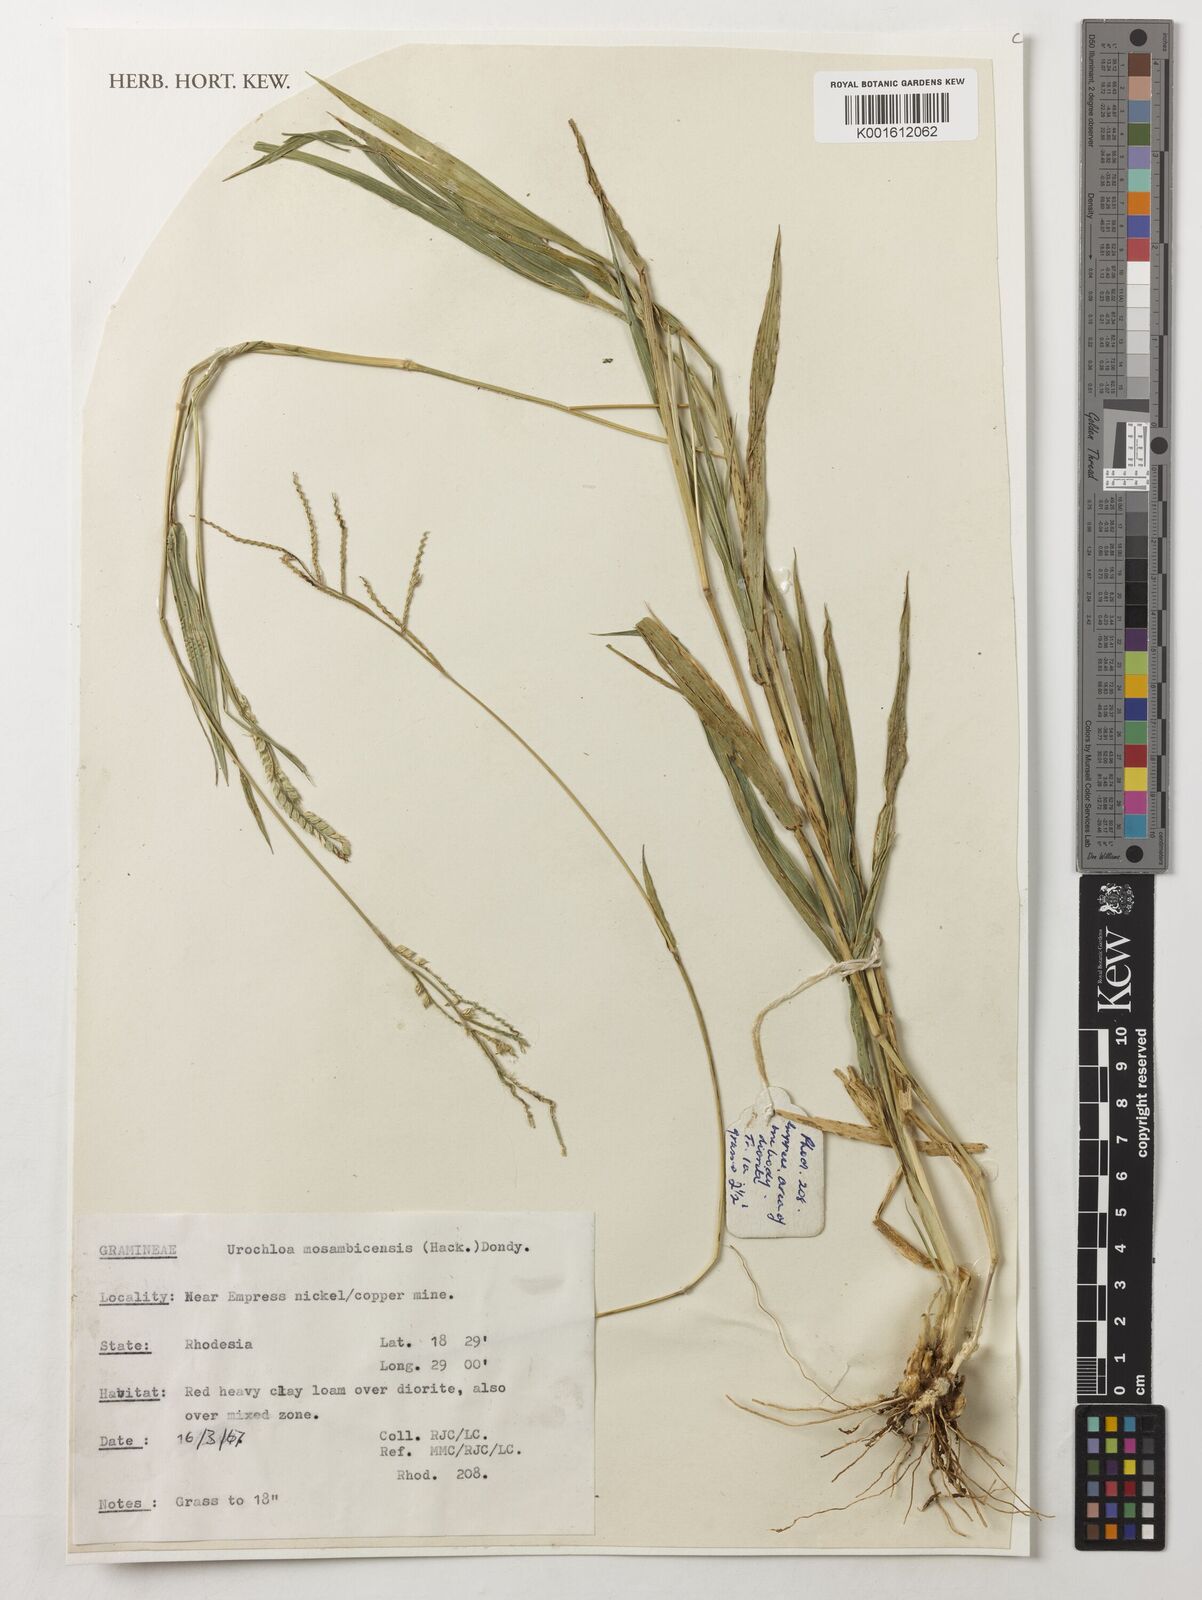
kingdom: Plantae
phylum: Tracheophyta
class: Liliopsida
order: Poales
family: Poaceae
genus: Urochloa
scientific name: Urochloa trichopus
